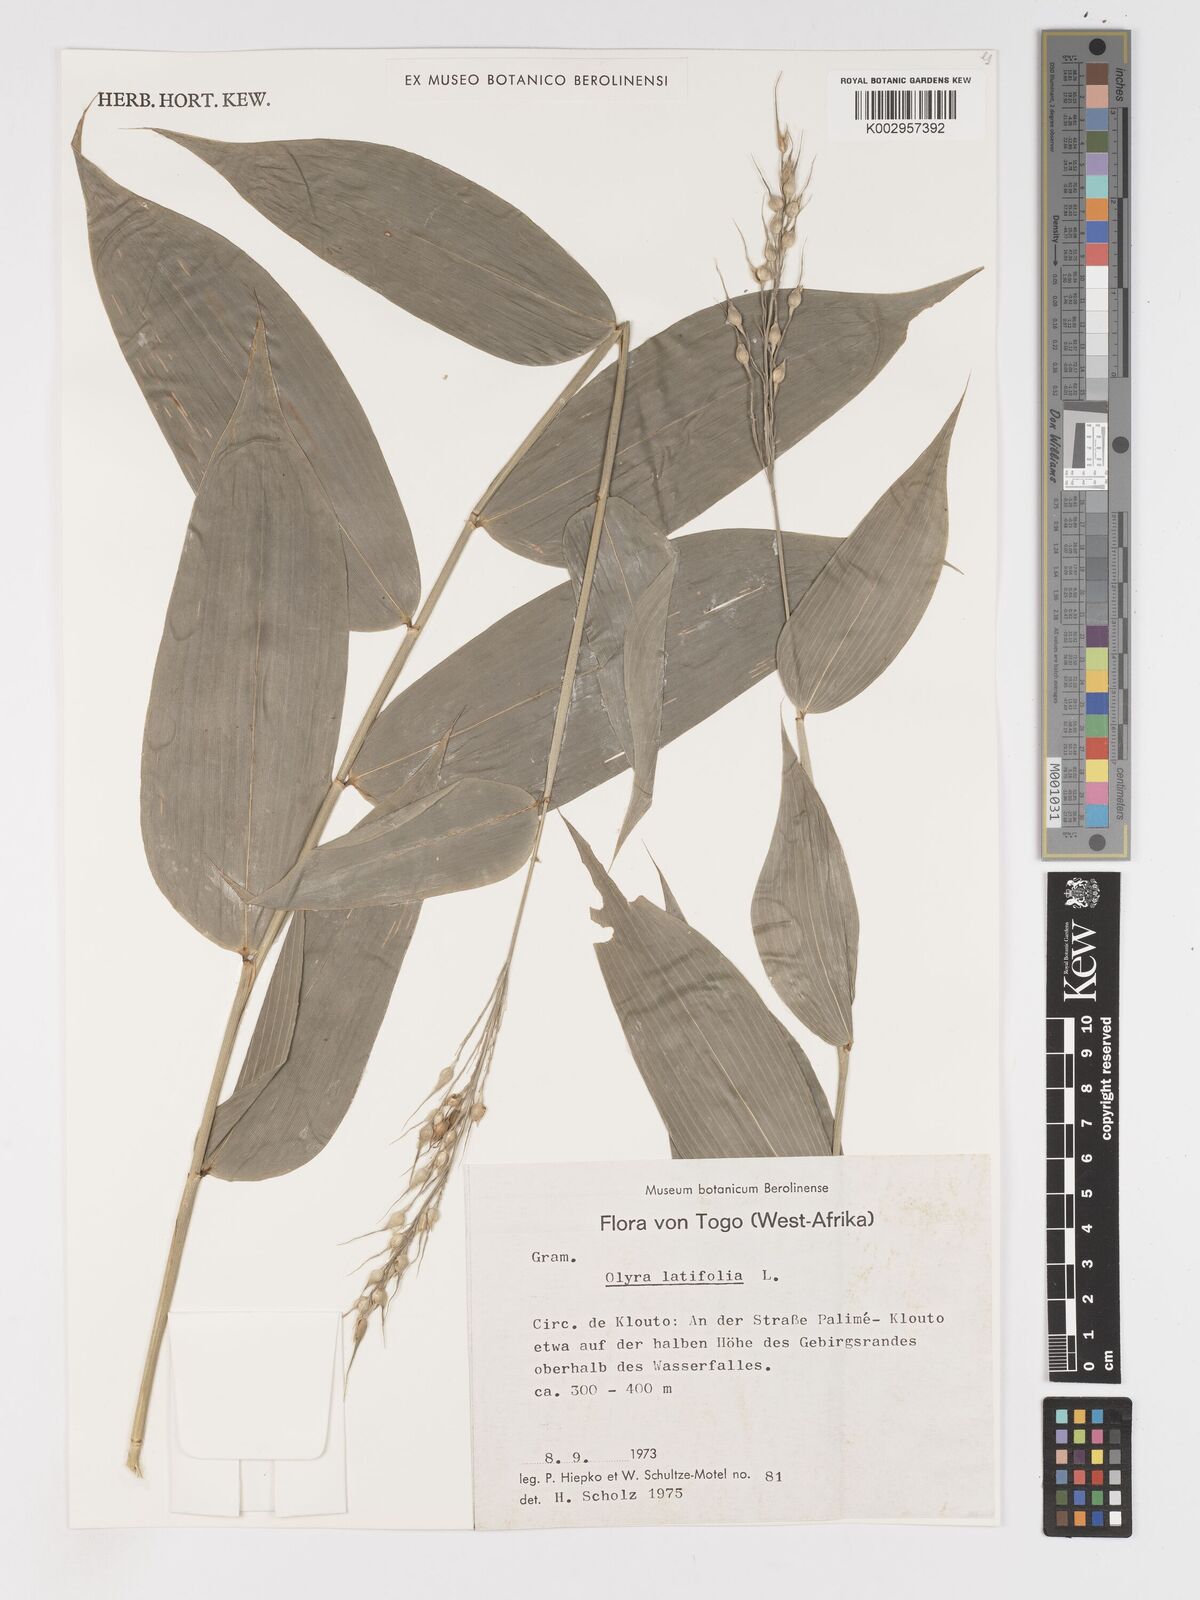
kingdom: Plantae
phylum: Tracheophyta
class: Liliopsida
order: Poales
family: Poaceae
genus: Olyra
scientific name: Olyra latifolia
